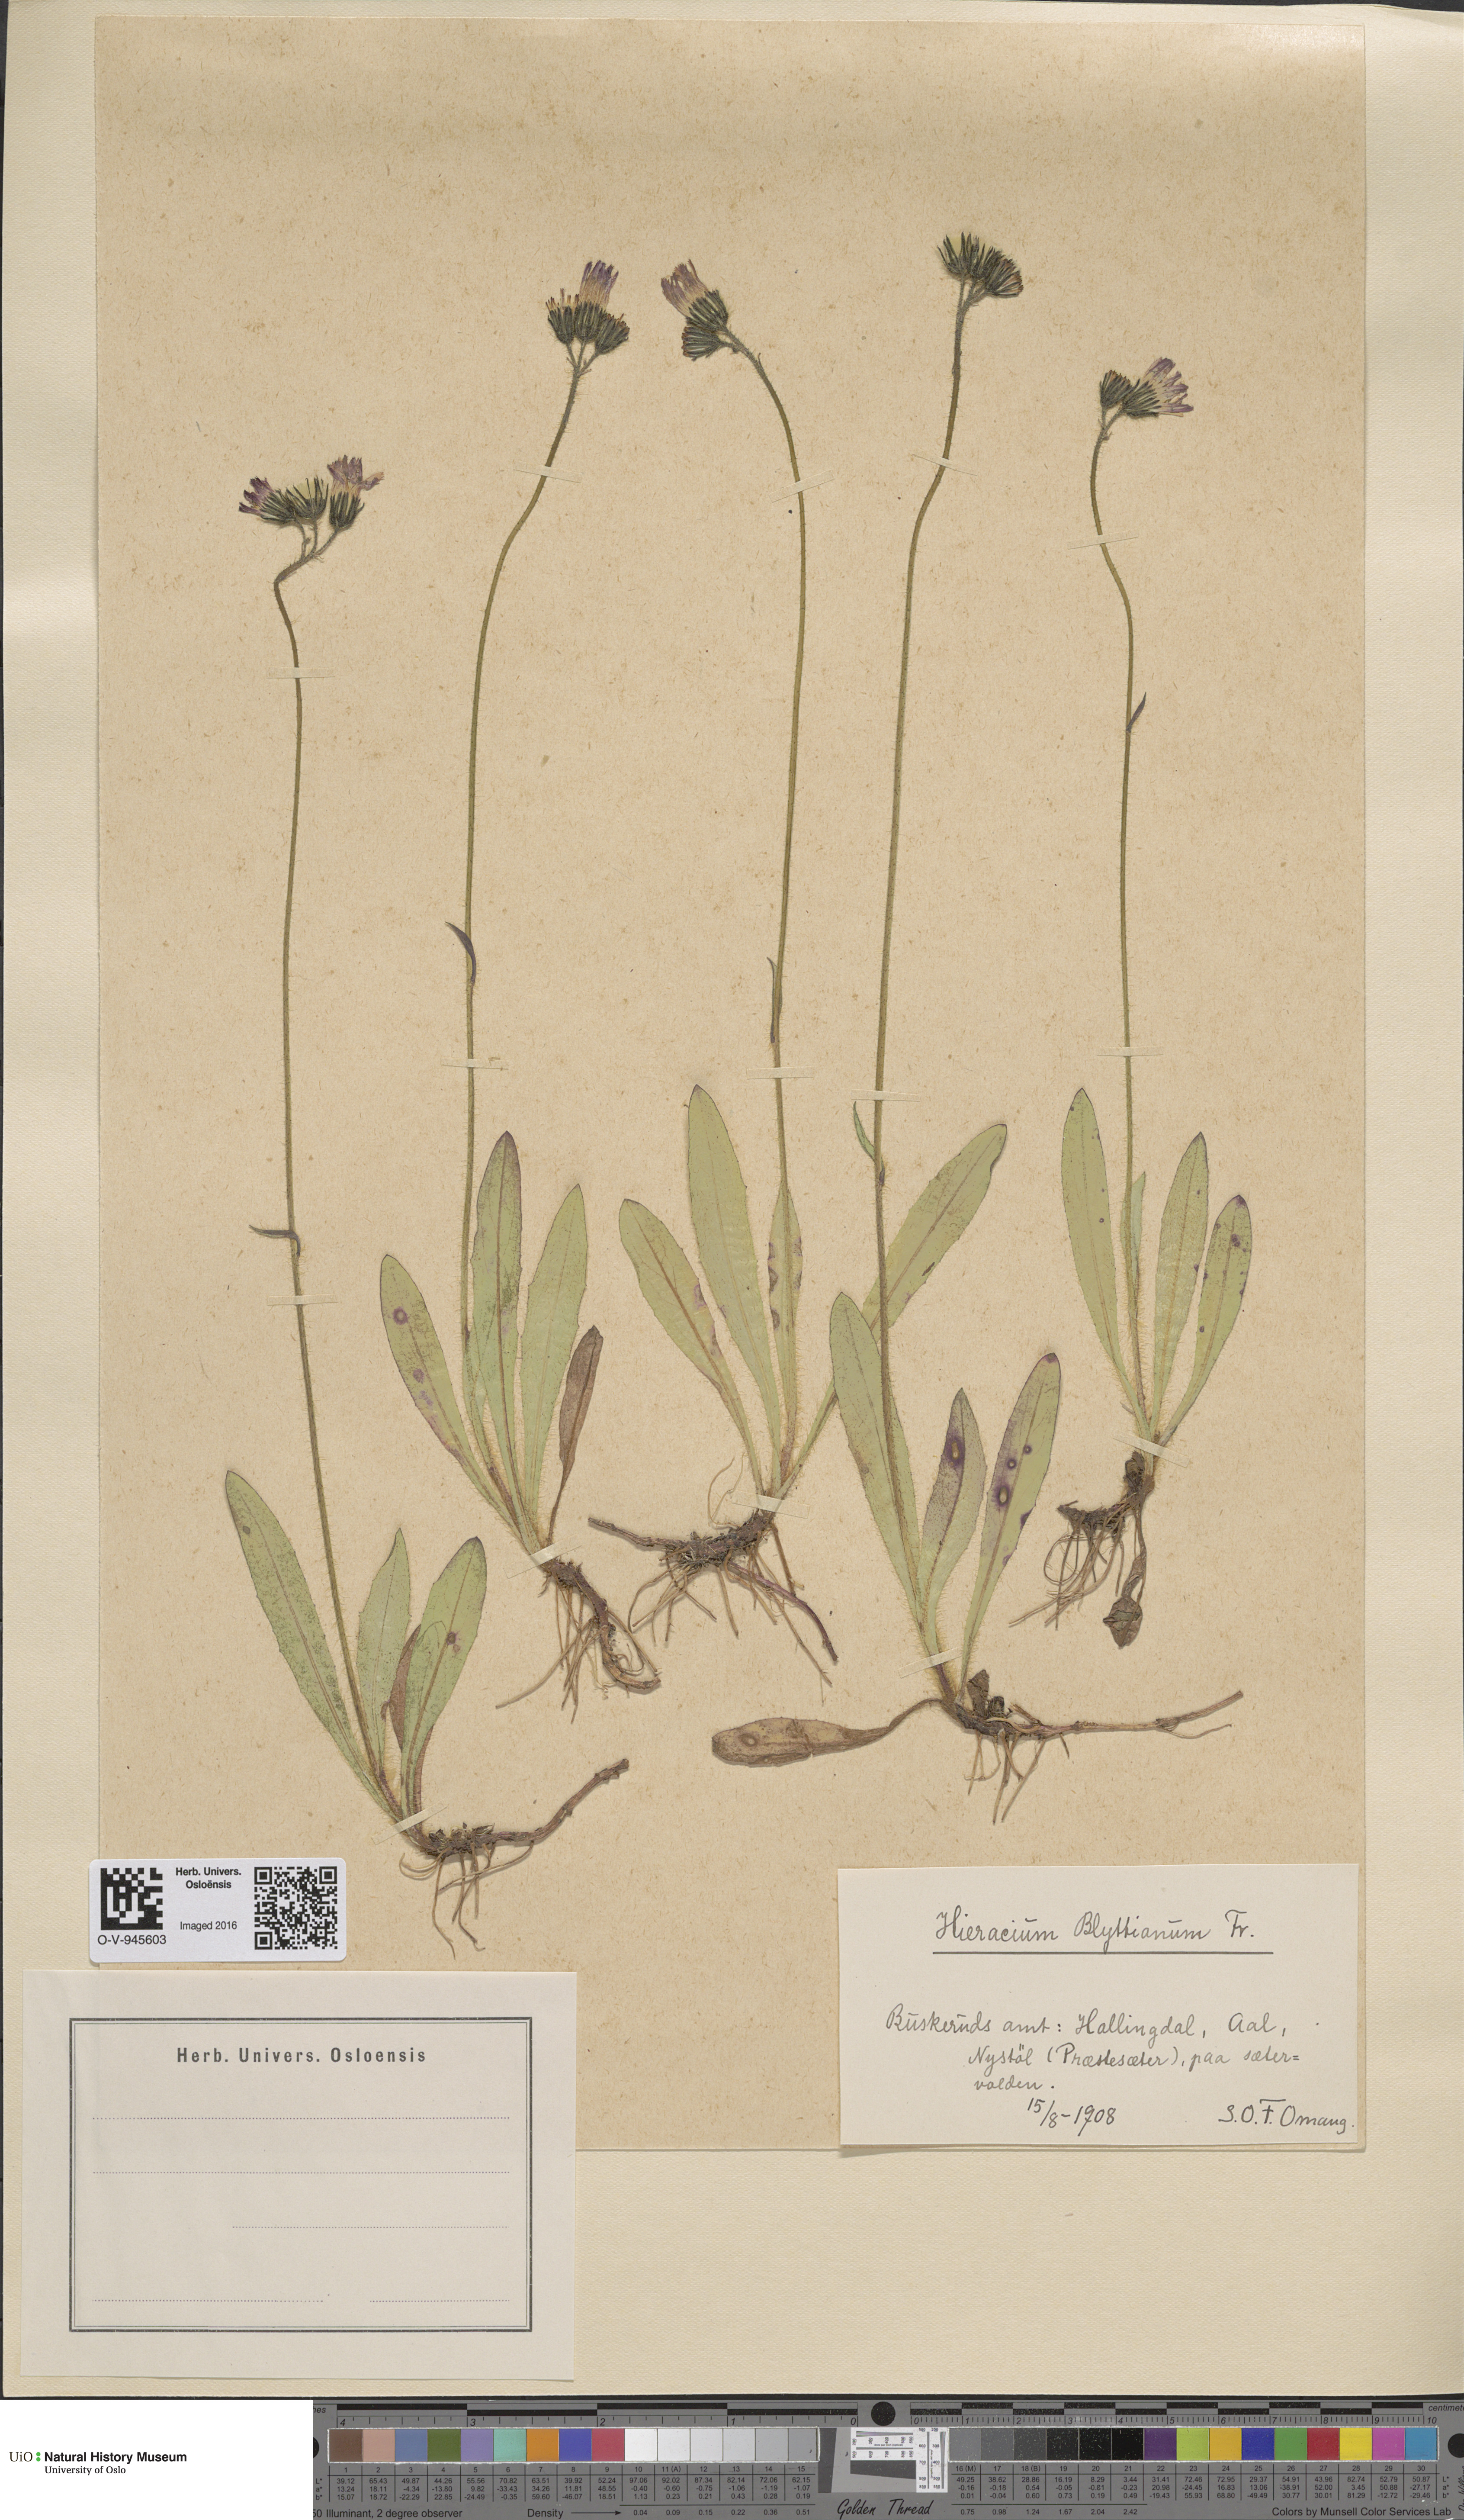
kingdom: Plantae
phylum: Tracheophyta
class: Magnoliopsida
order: Asterales
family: Asteraceae
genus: Pilosella
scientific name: Pilosella blyttiana
